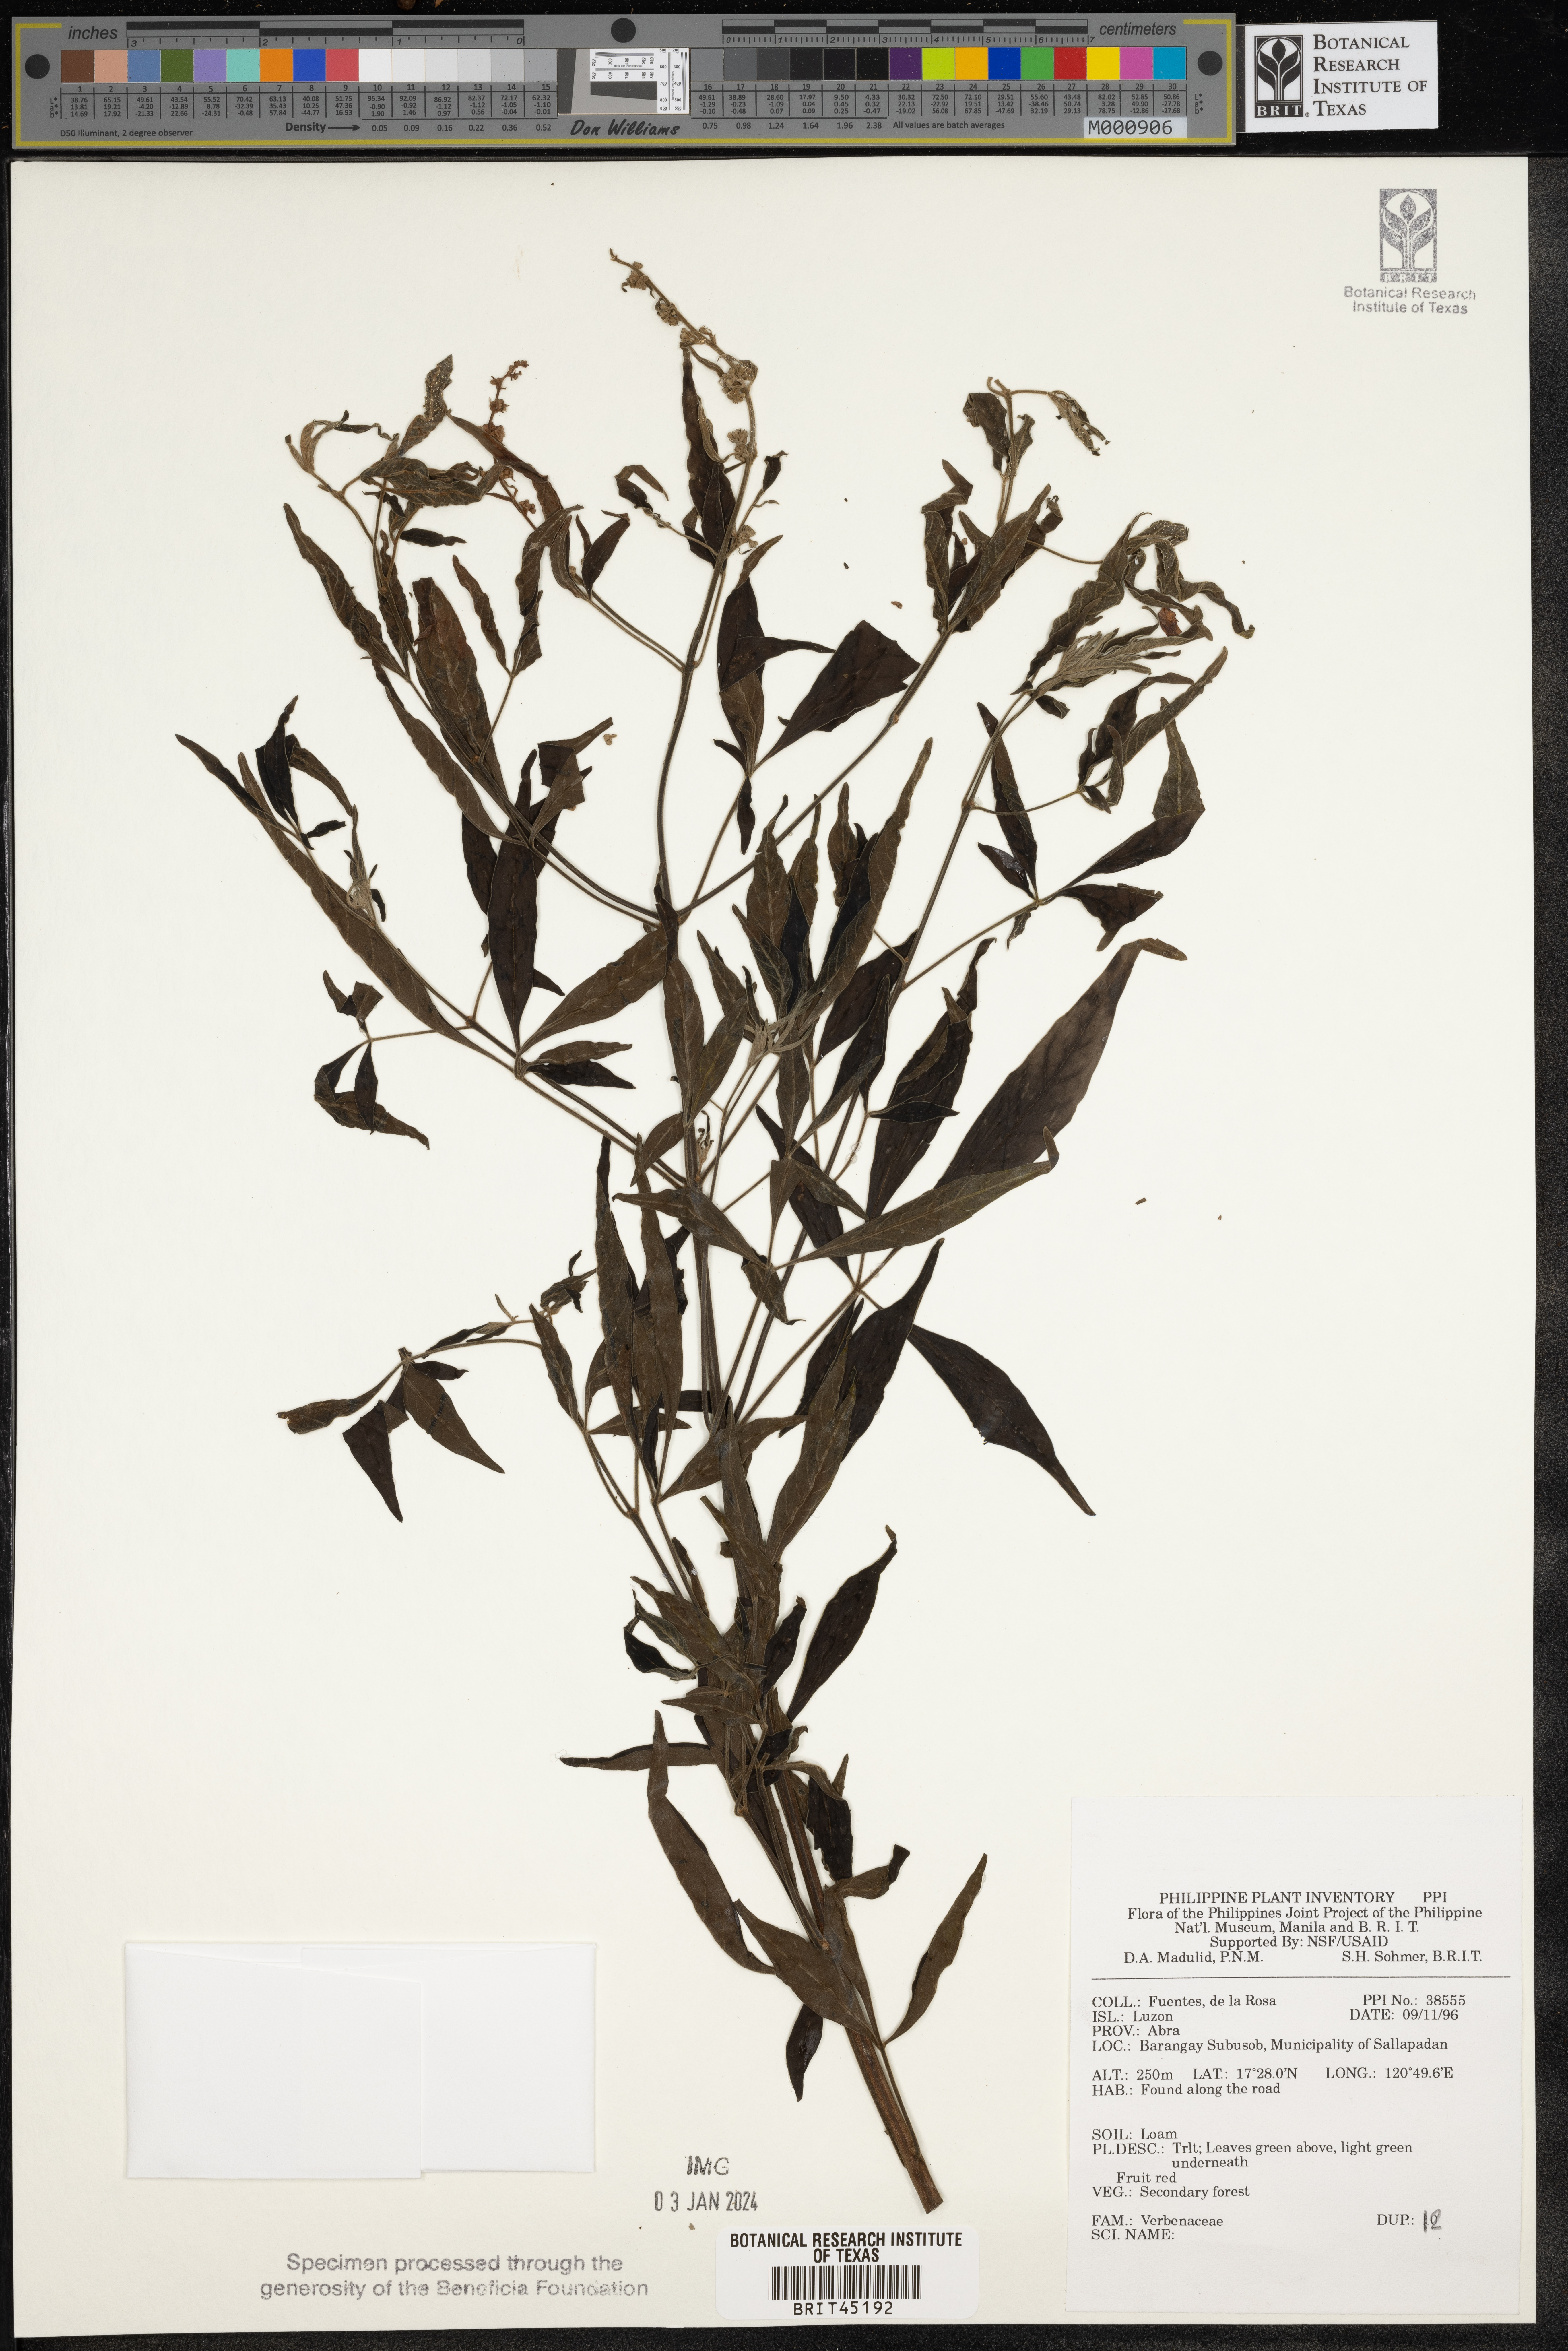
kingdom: Plantae
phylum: Tracheophyta
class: Magnoliopsida
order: Lamiales
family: Verbenaceae
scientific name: Verbenaceae
